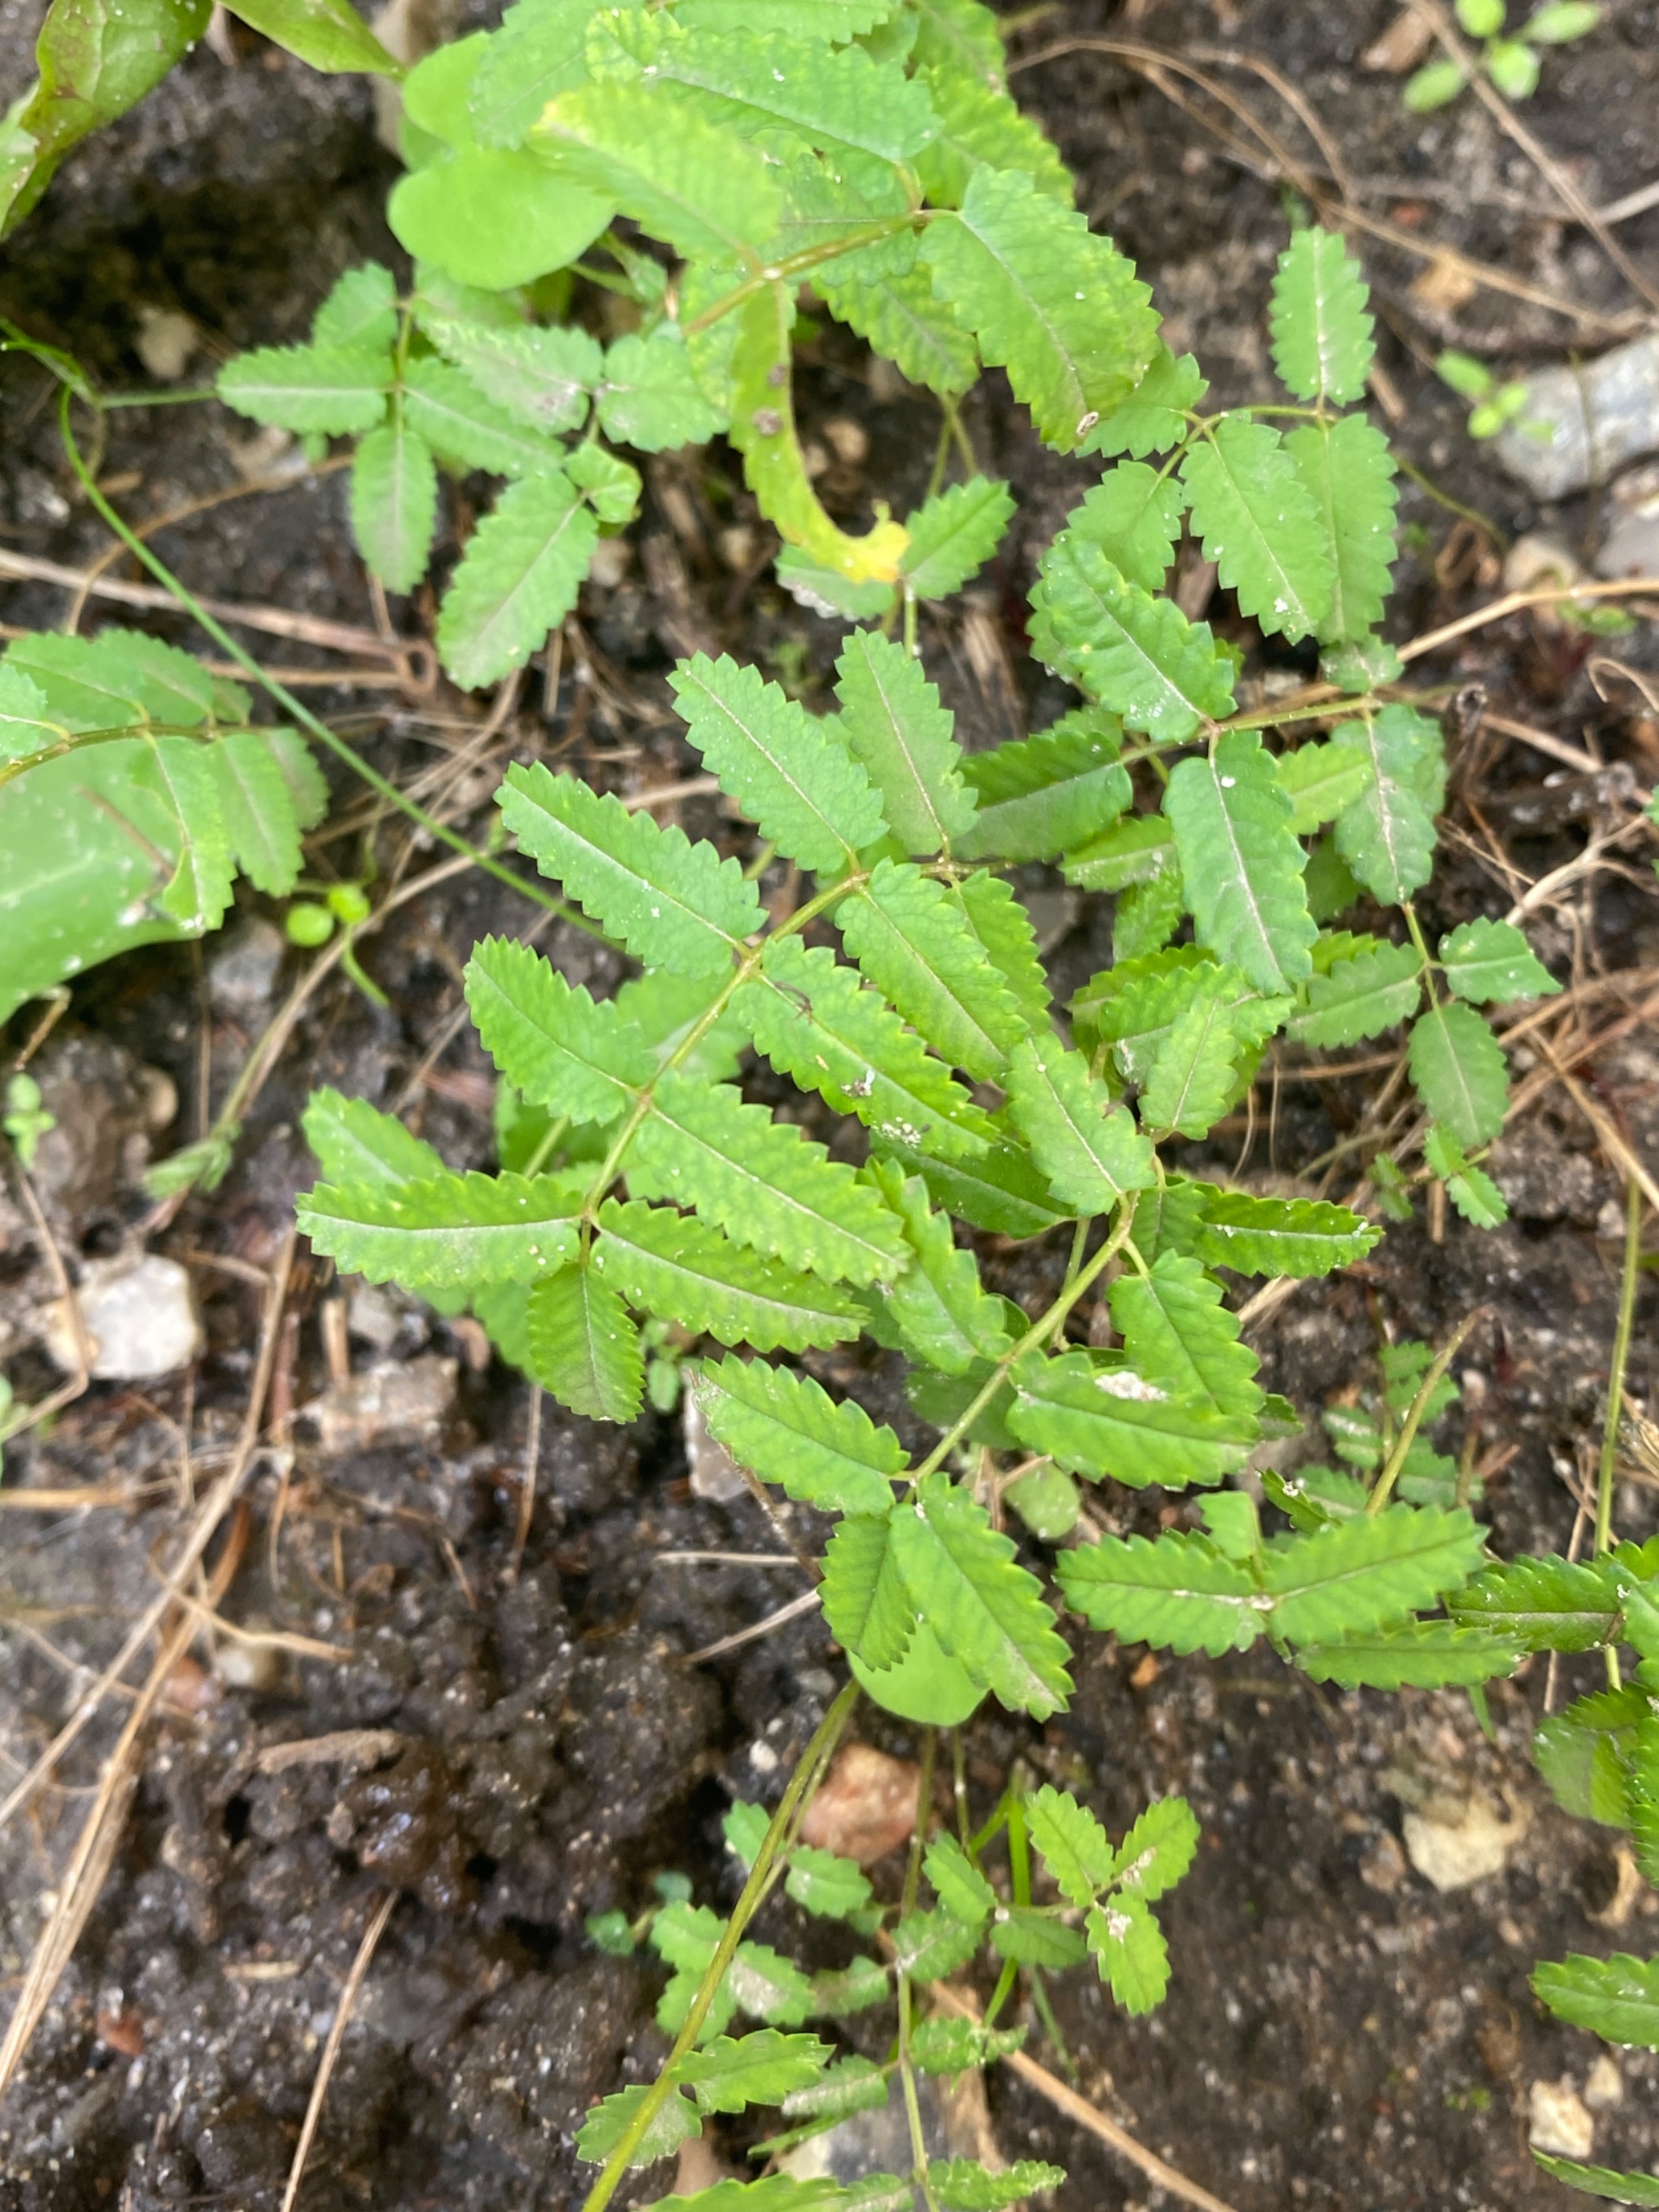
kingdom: Plantae
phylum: Tracheophyta
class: Magnoliopsida
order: Rosales
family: Rosaceae
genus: Sanguisorba
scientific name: Sanguisorba
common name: Kvæsurtslægten
